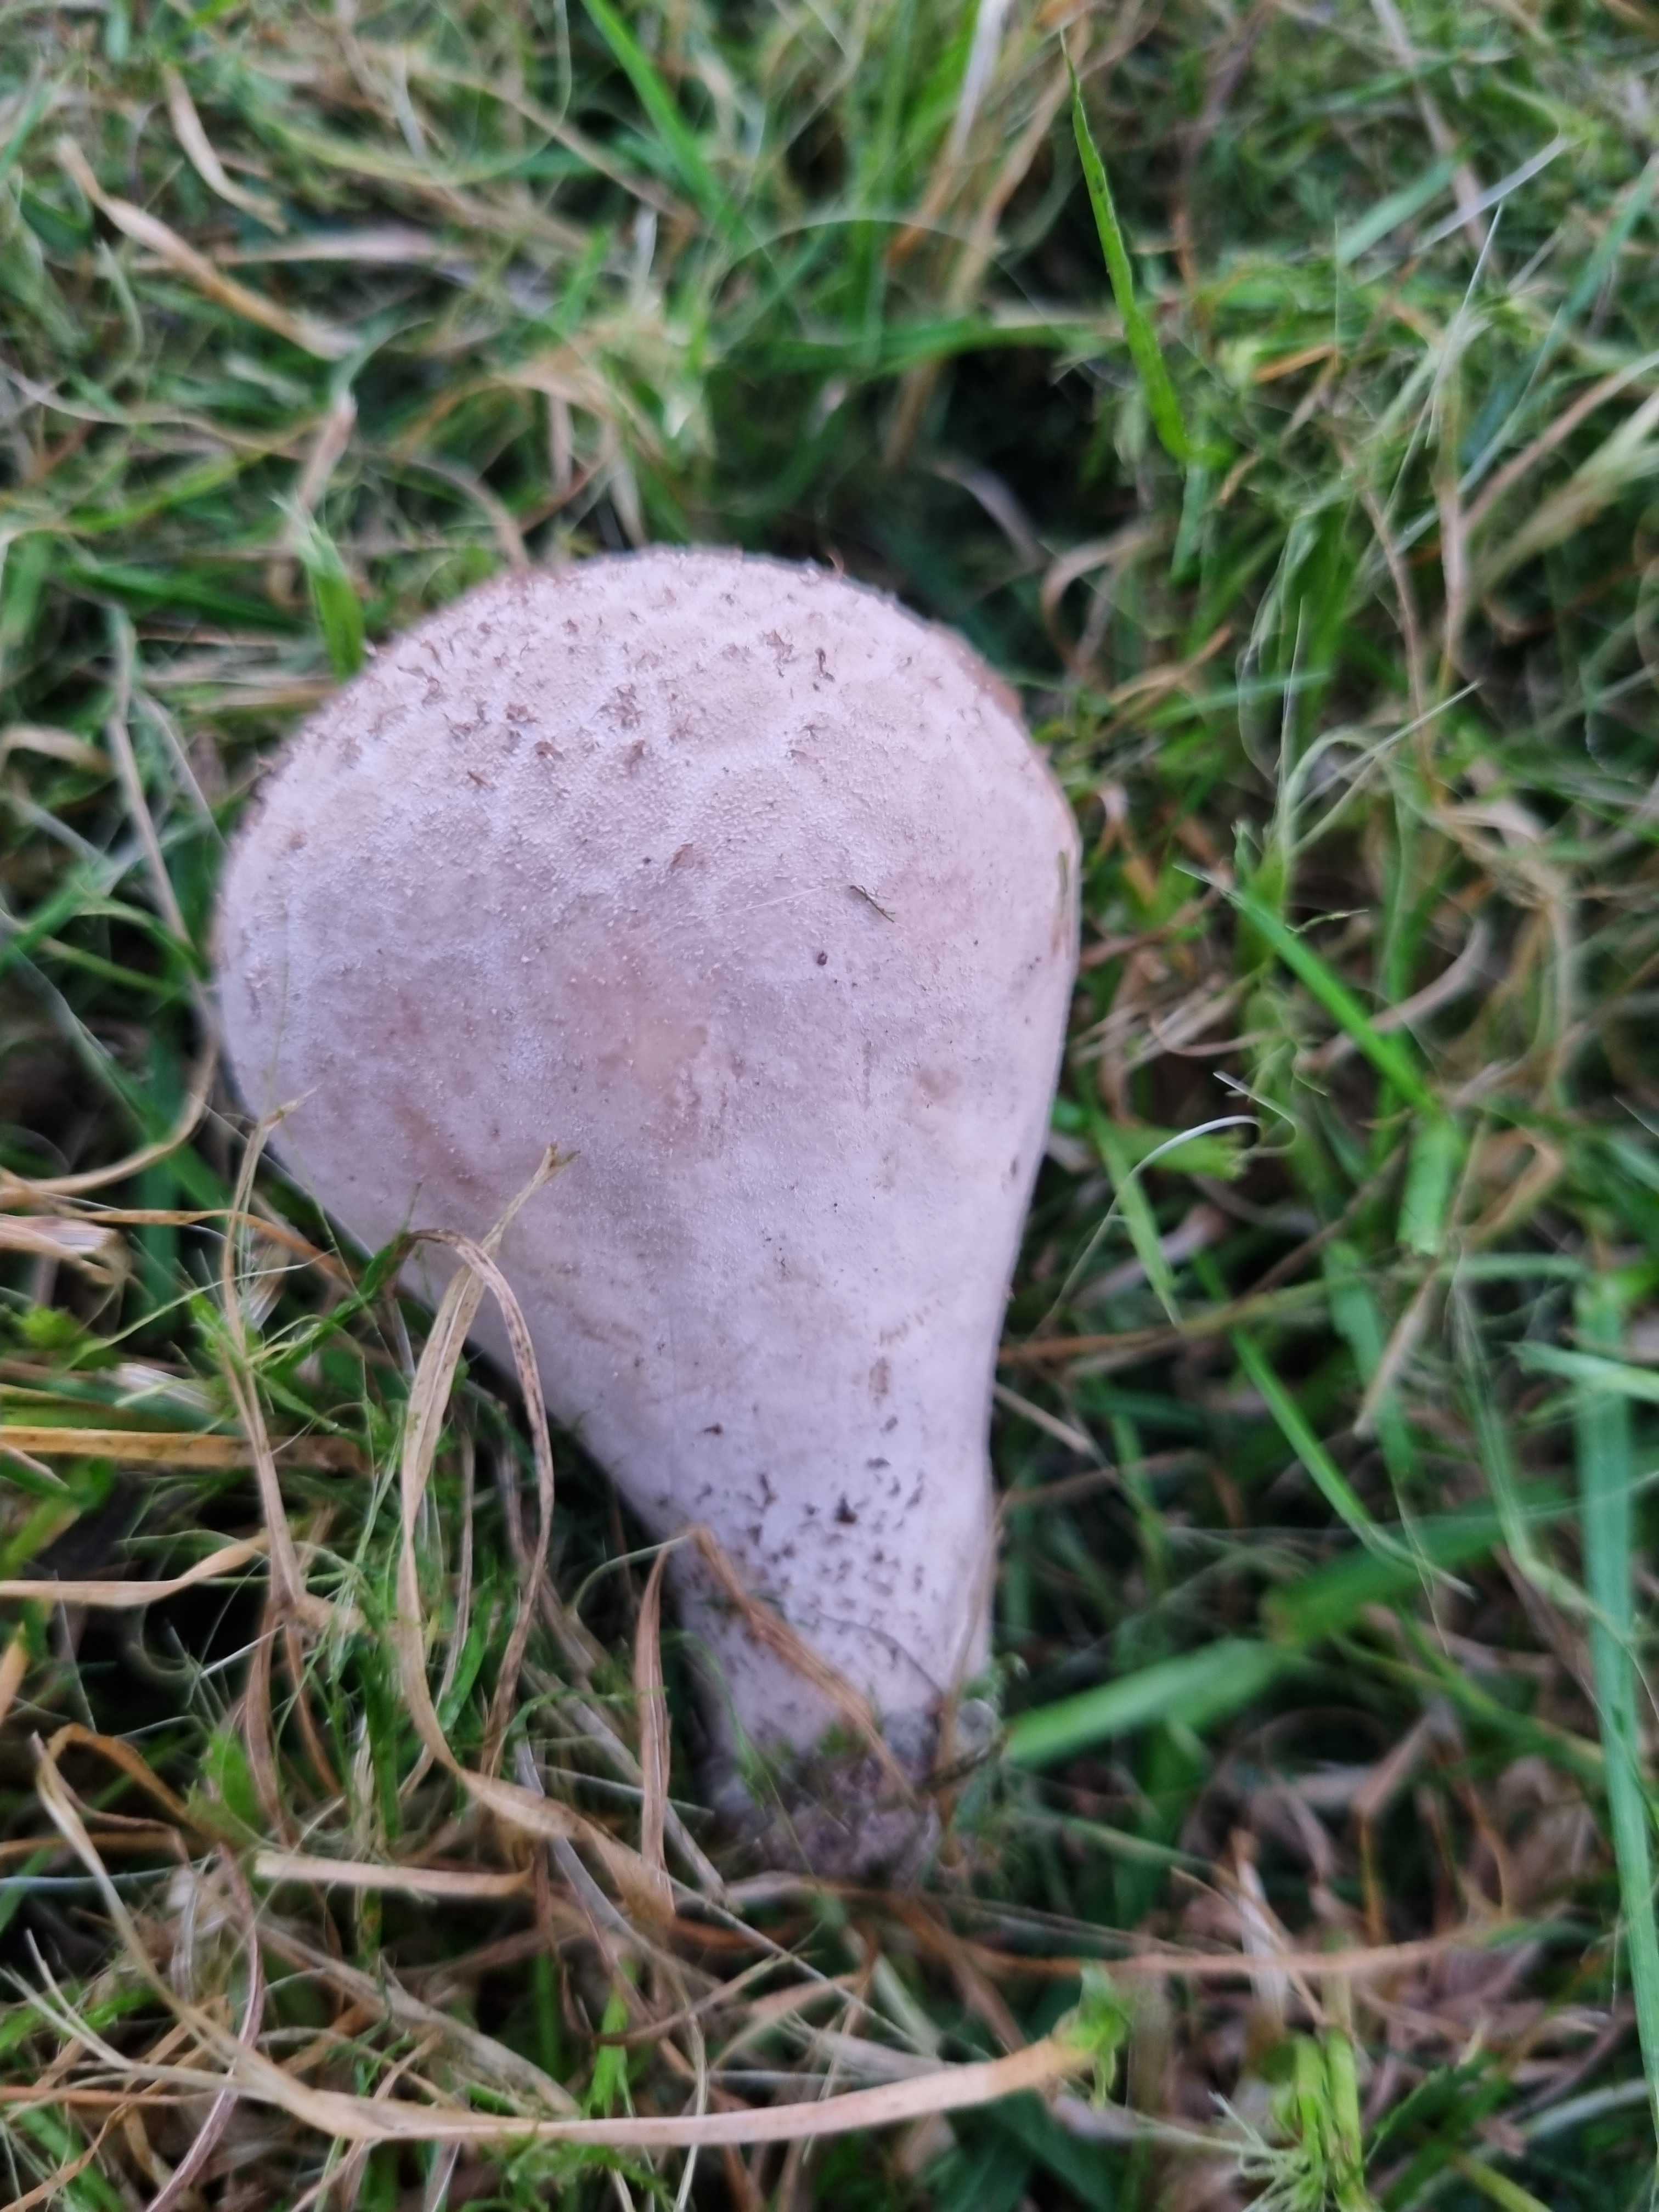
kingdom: Fungi
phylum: Basidiomycota
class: Agaricomycetes
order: Agaricales
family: Lycoperdaceae
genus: Lycoperdon
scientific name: Lycoperdon excipuliforme
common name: højstokket støvbold
